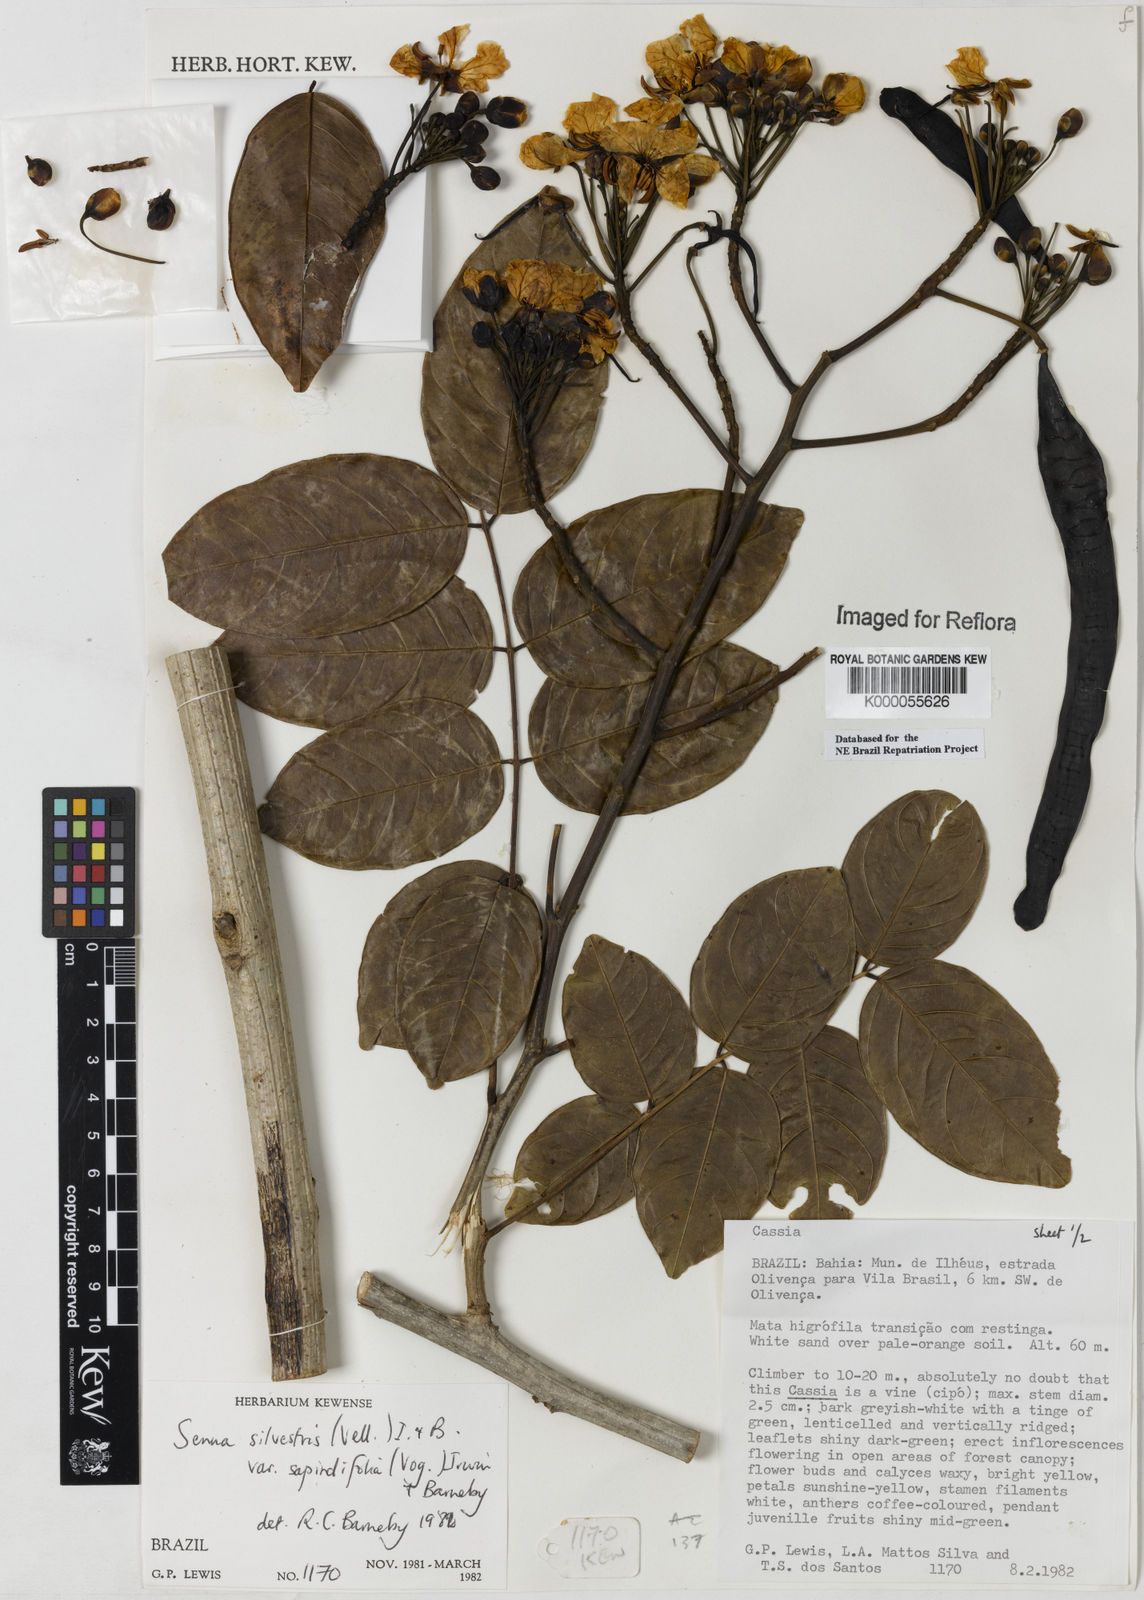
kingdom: Plantae
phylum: Tracheophyta
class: Magnoliopsida
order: Fabales
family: Fabaceae
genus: Senna
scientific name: Senna silvestris
